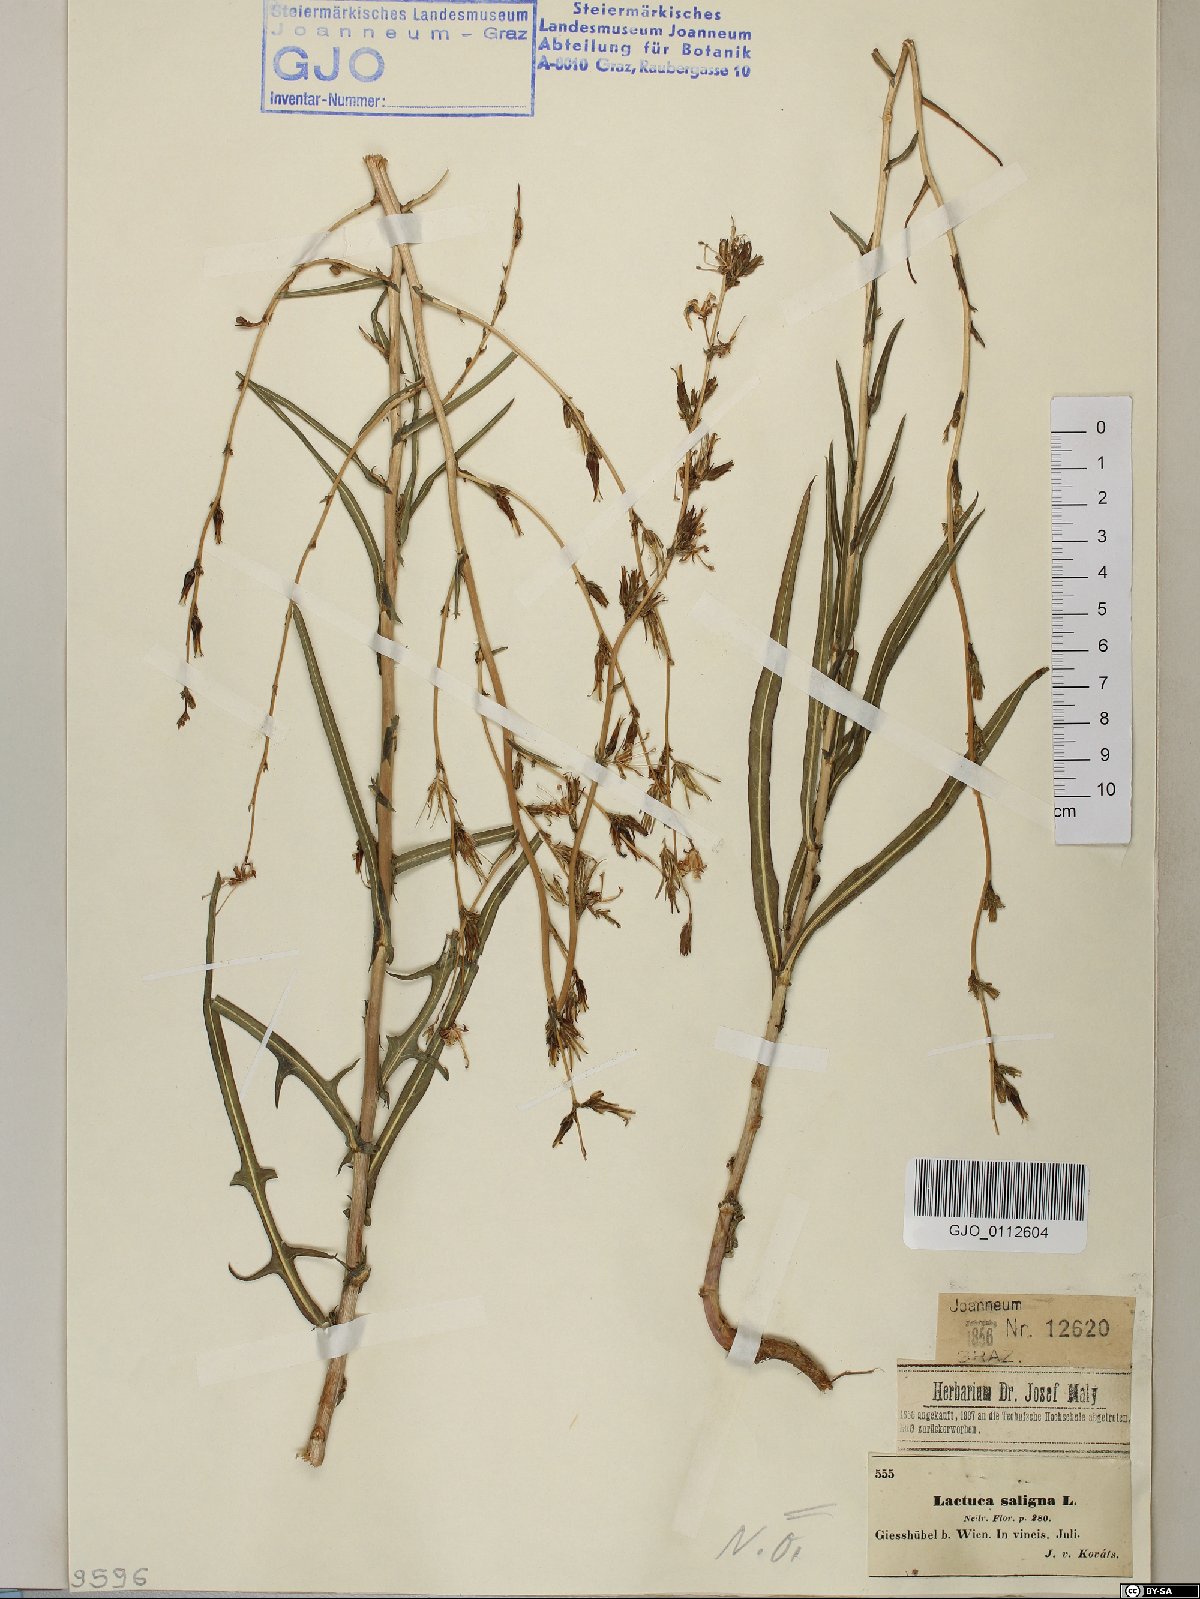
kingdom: Plantae
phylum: Tracheophyta
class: Magnoliopsida
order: Asterales
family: Asteraceae
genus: Lactuca
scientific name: Lactuca saligna
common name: Wild lettuce
